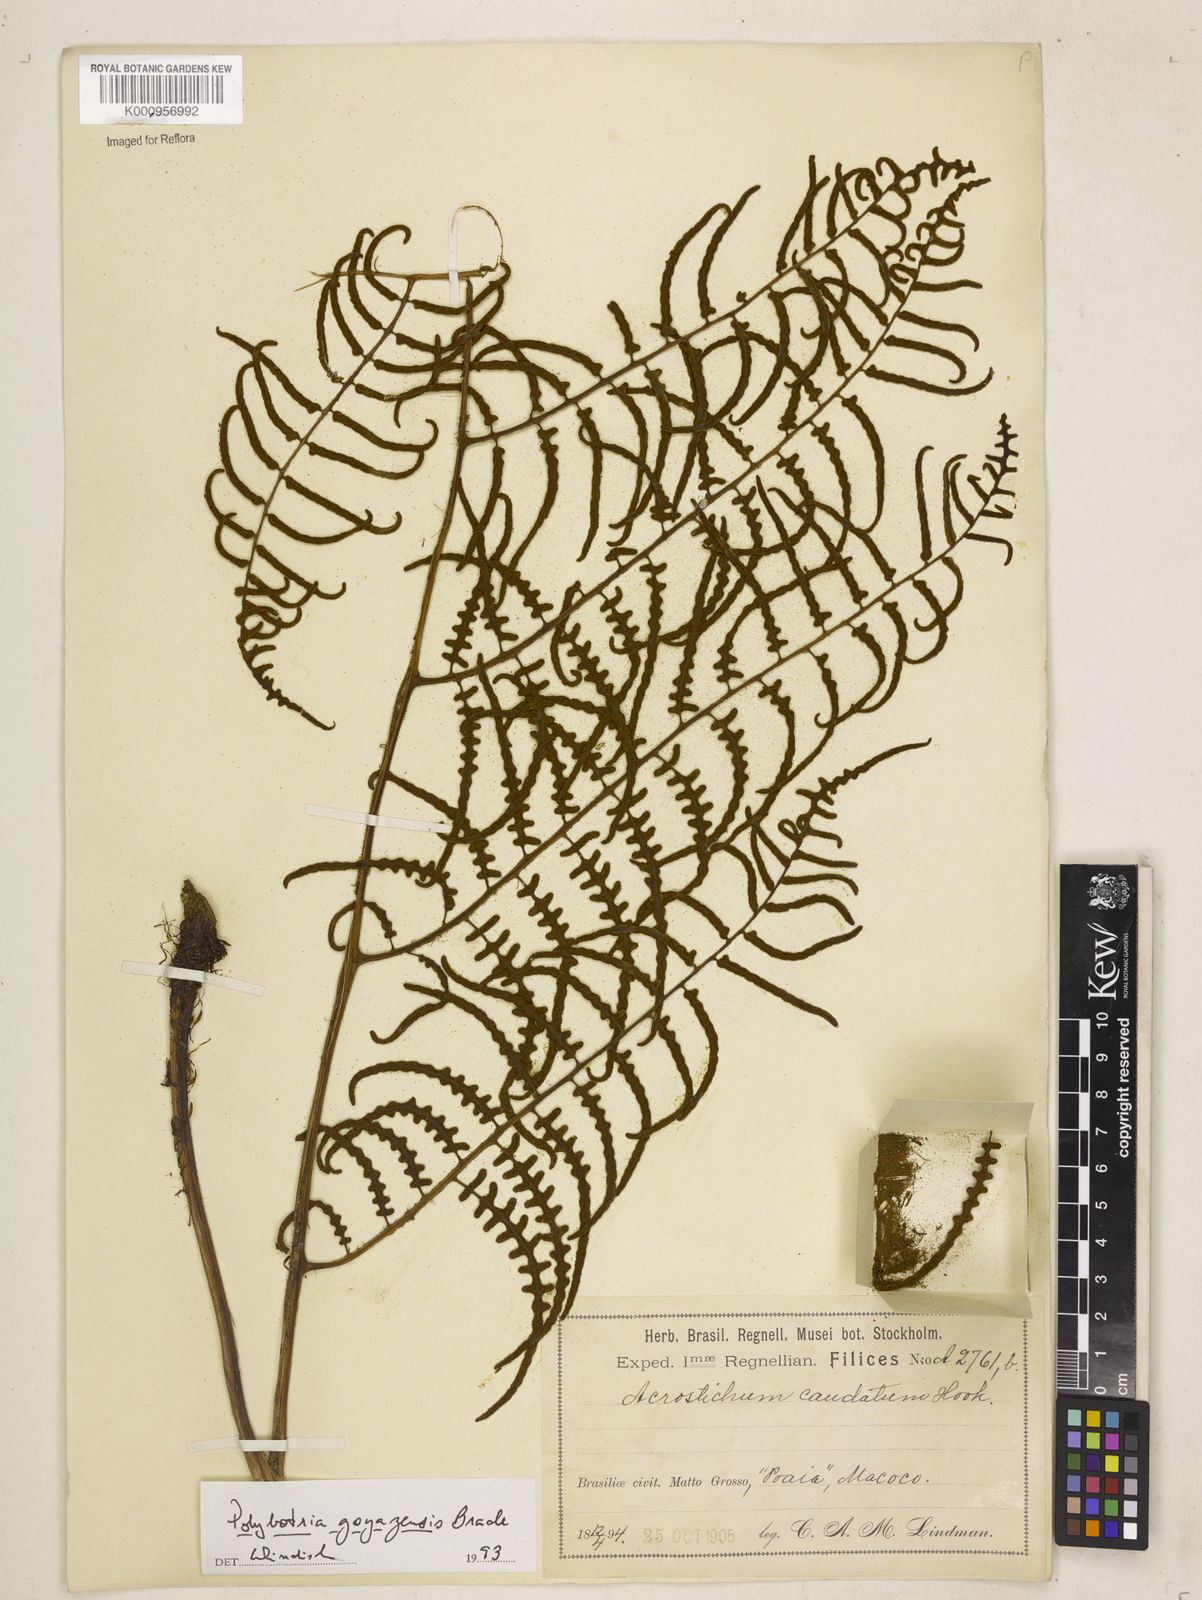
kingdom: Plantae
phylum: Tracheophyta
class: Polypodiopsida
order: Polypodiales
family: Dryopteridaceae
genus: Polybotrya
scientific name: Polybotrya goyazensis
